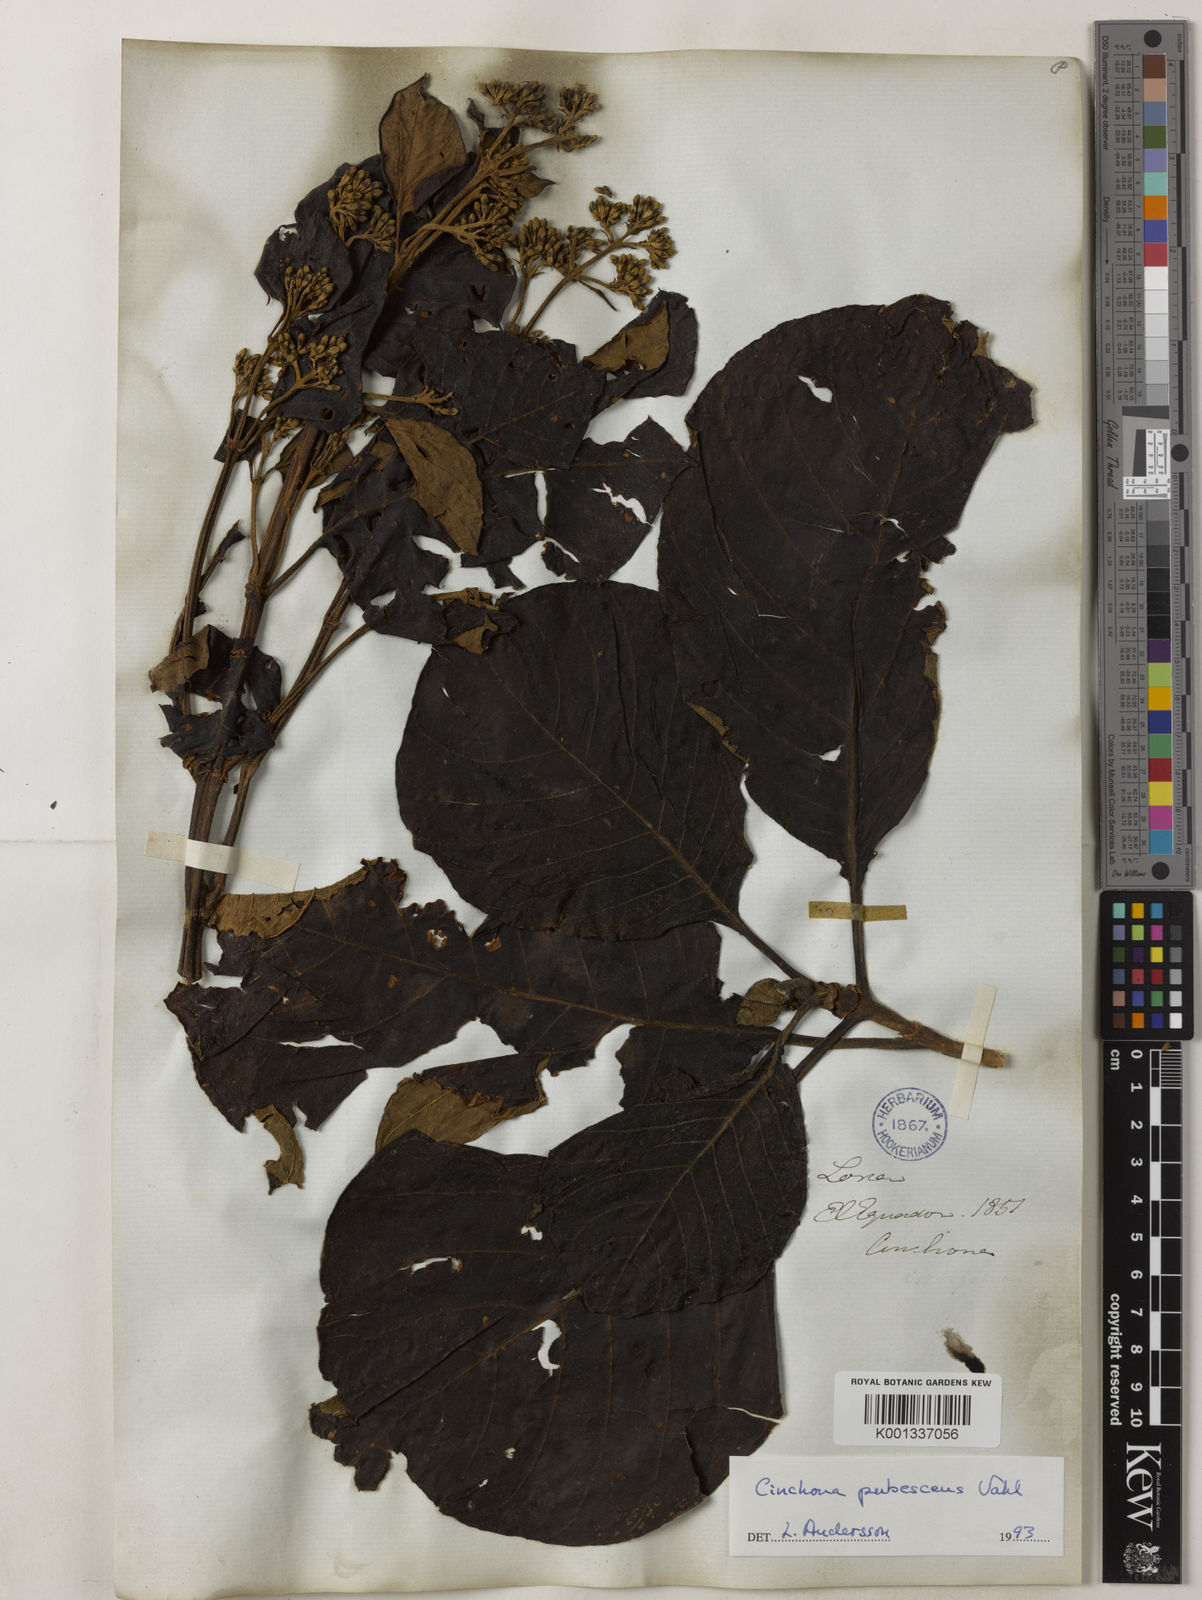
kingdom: Plantae
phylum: Tracheophyta
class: Magnoliopsida
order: Gentianales
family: Rubiaceae
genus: Cinchona
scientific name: Cinchona pubescens
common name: Quinine
